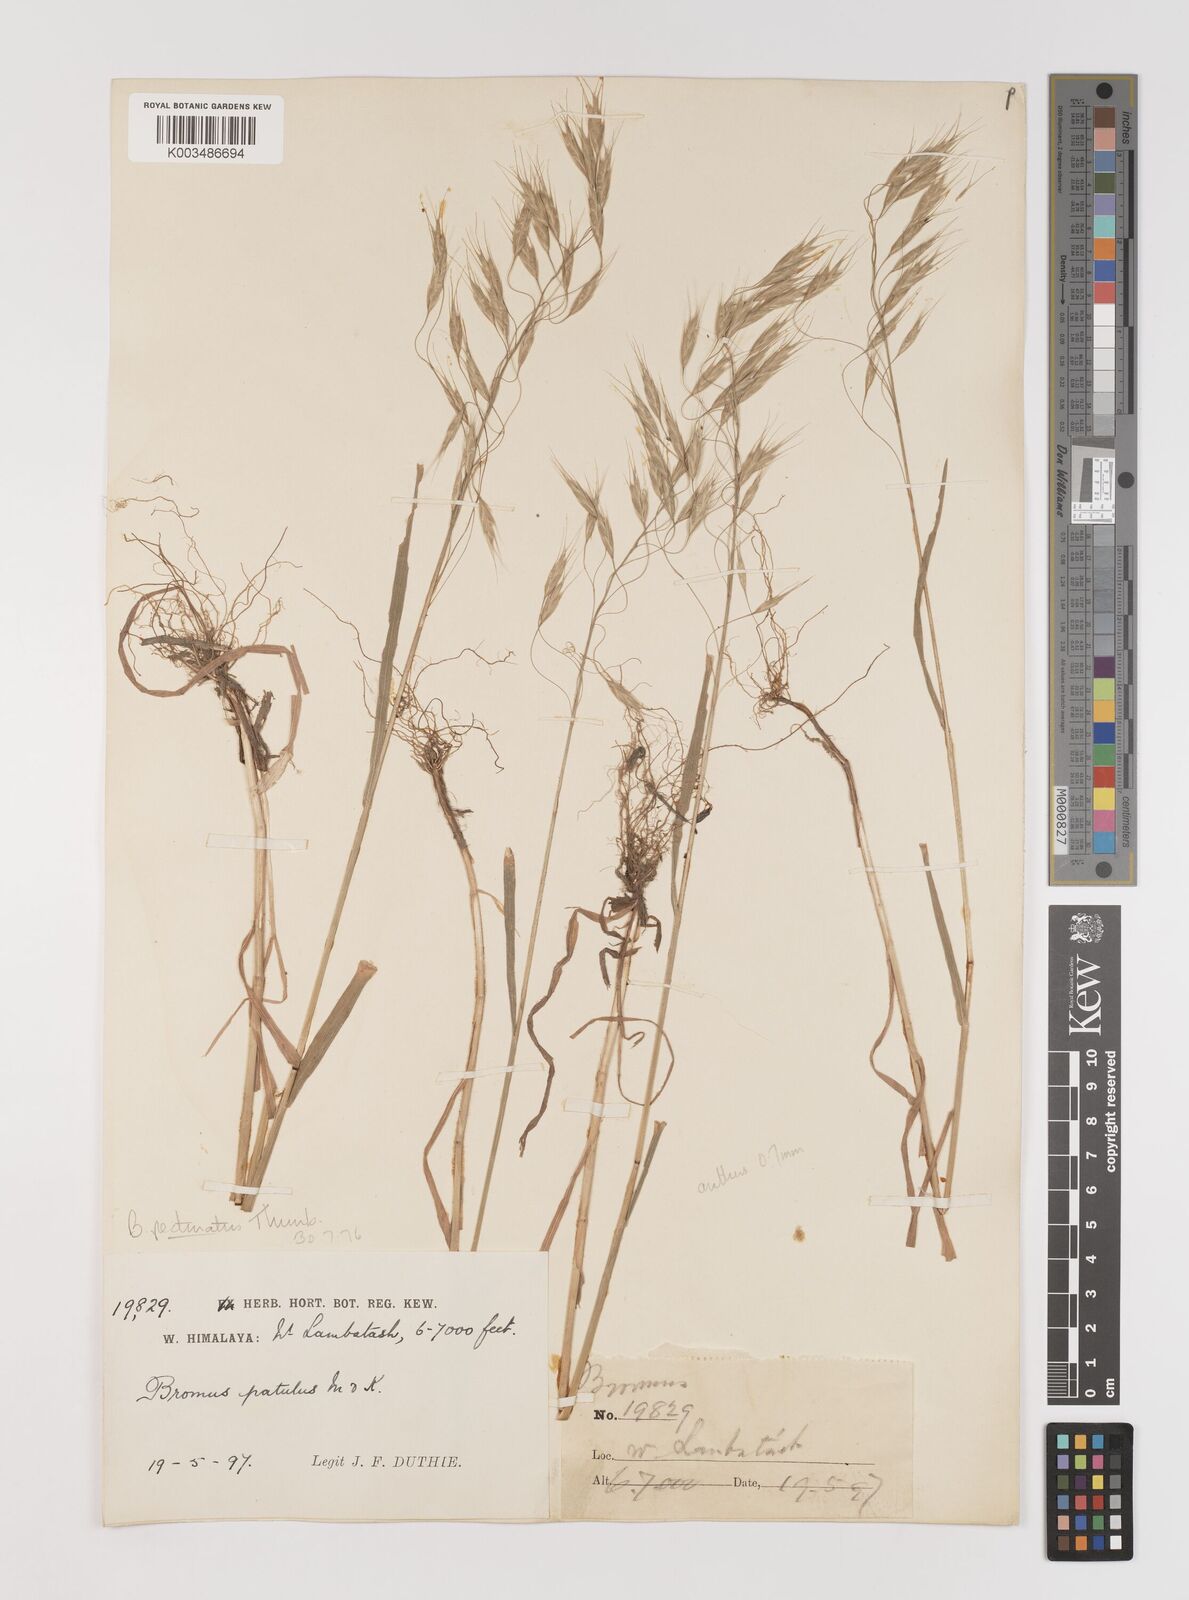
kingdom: Plantae
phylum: Tracheophyta
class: Liliopsida
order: Poales
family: Poaceae
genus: Bromus
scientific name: Bromus pectinatus
